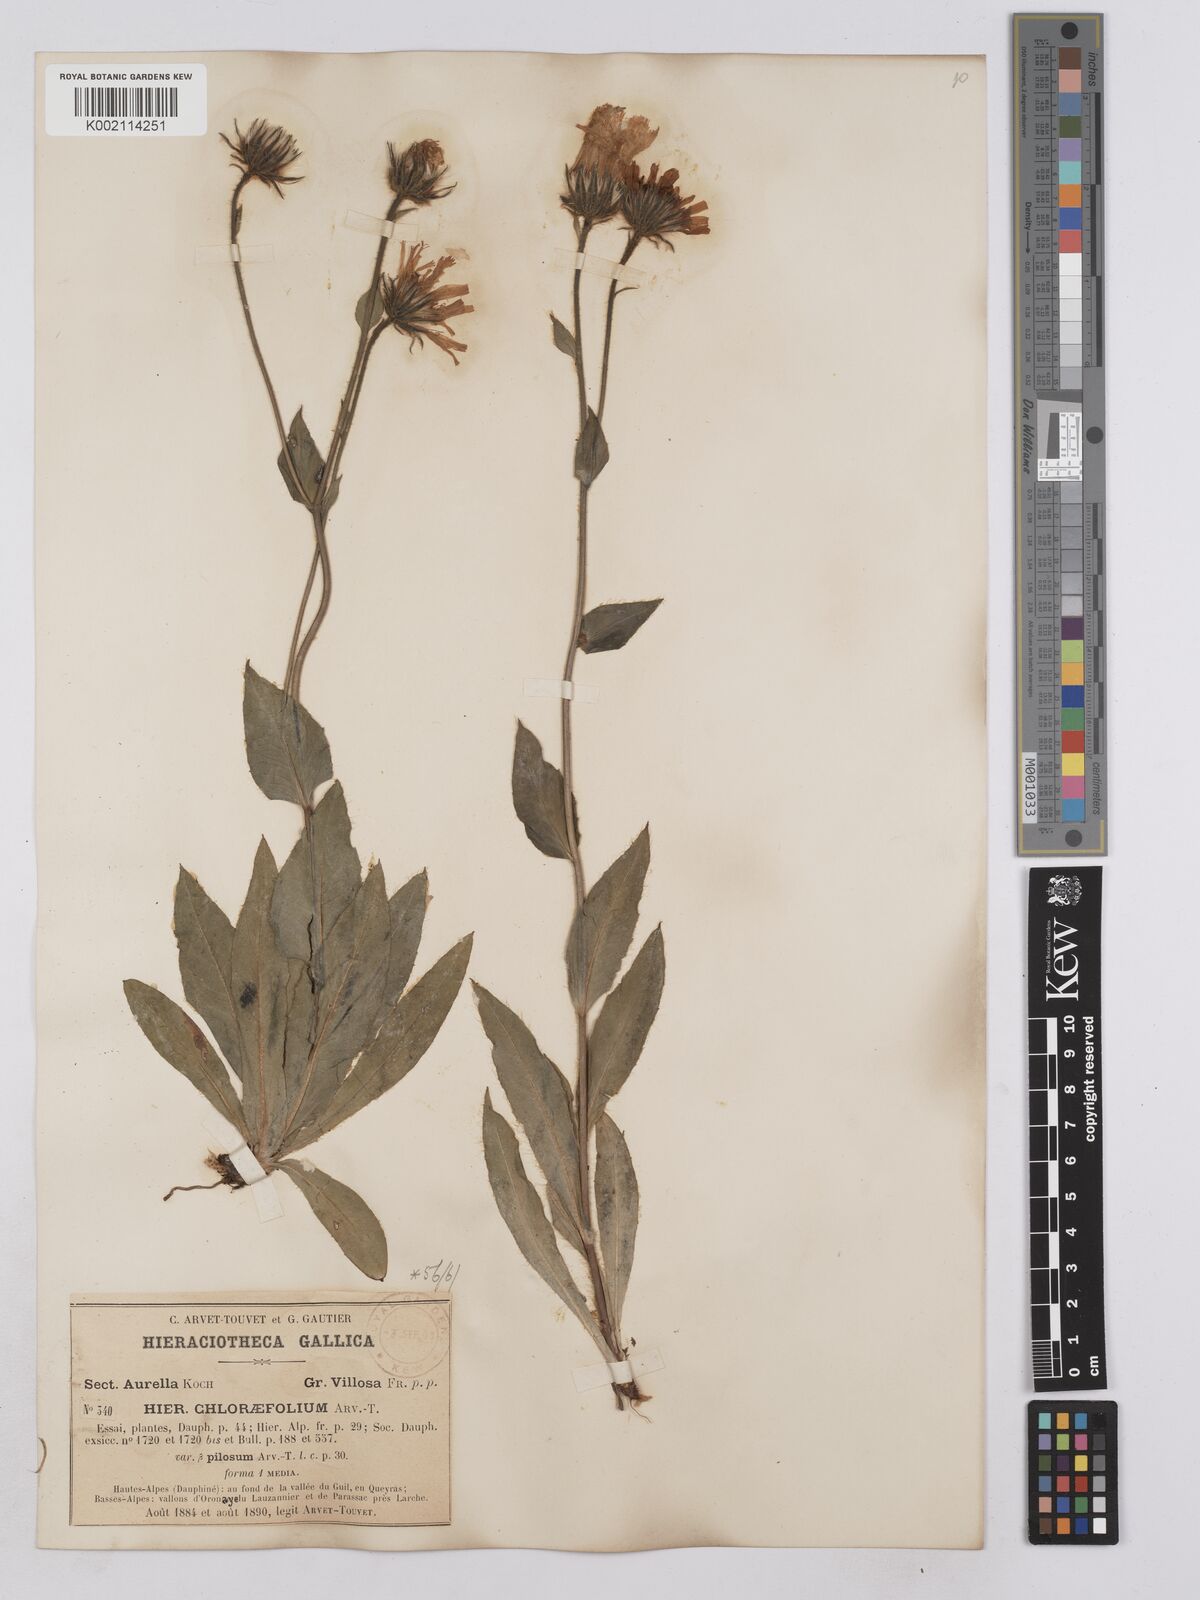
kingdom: Plantae
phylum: Tracheophyta
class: Magnoliopsida
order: Asterales
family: Asteraceae
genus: Hieracium
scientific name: Hieracium chlorifolium
